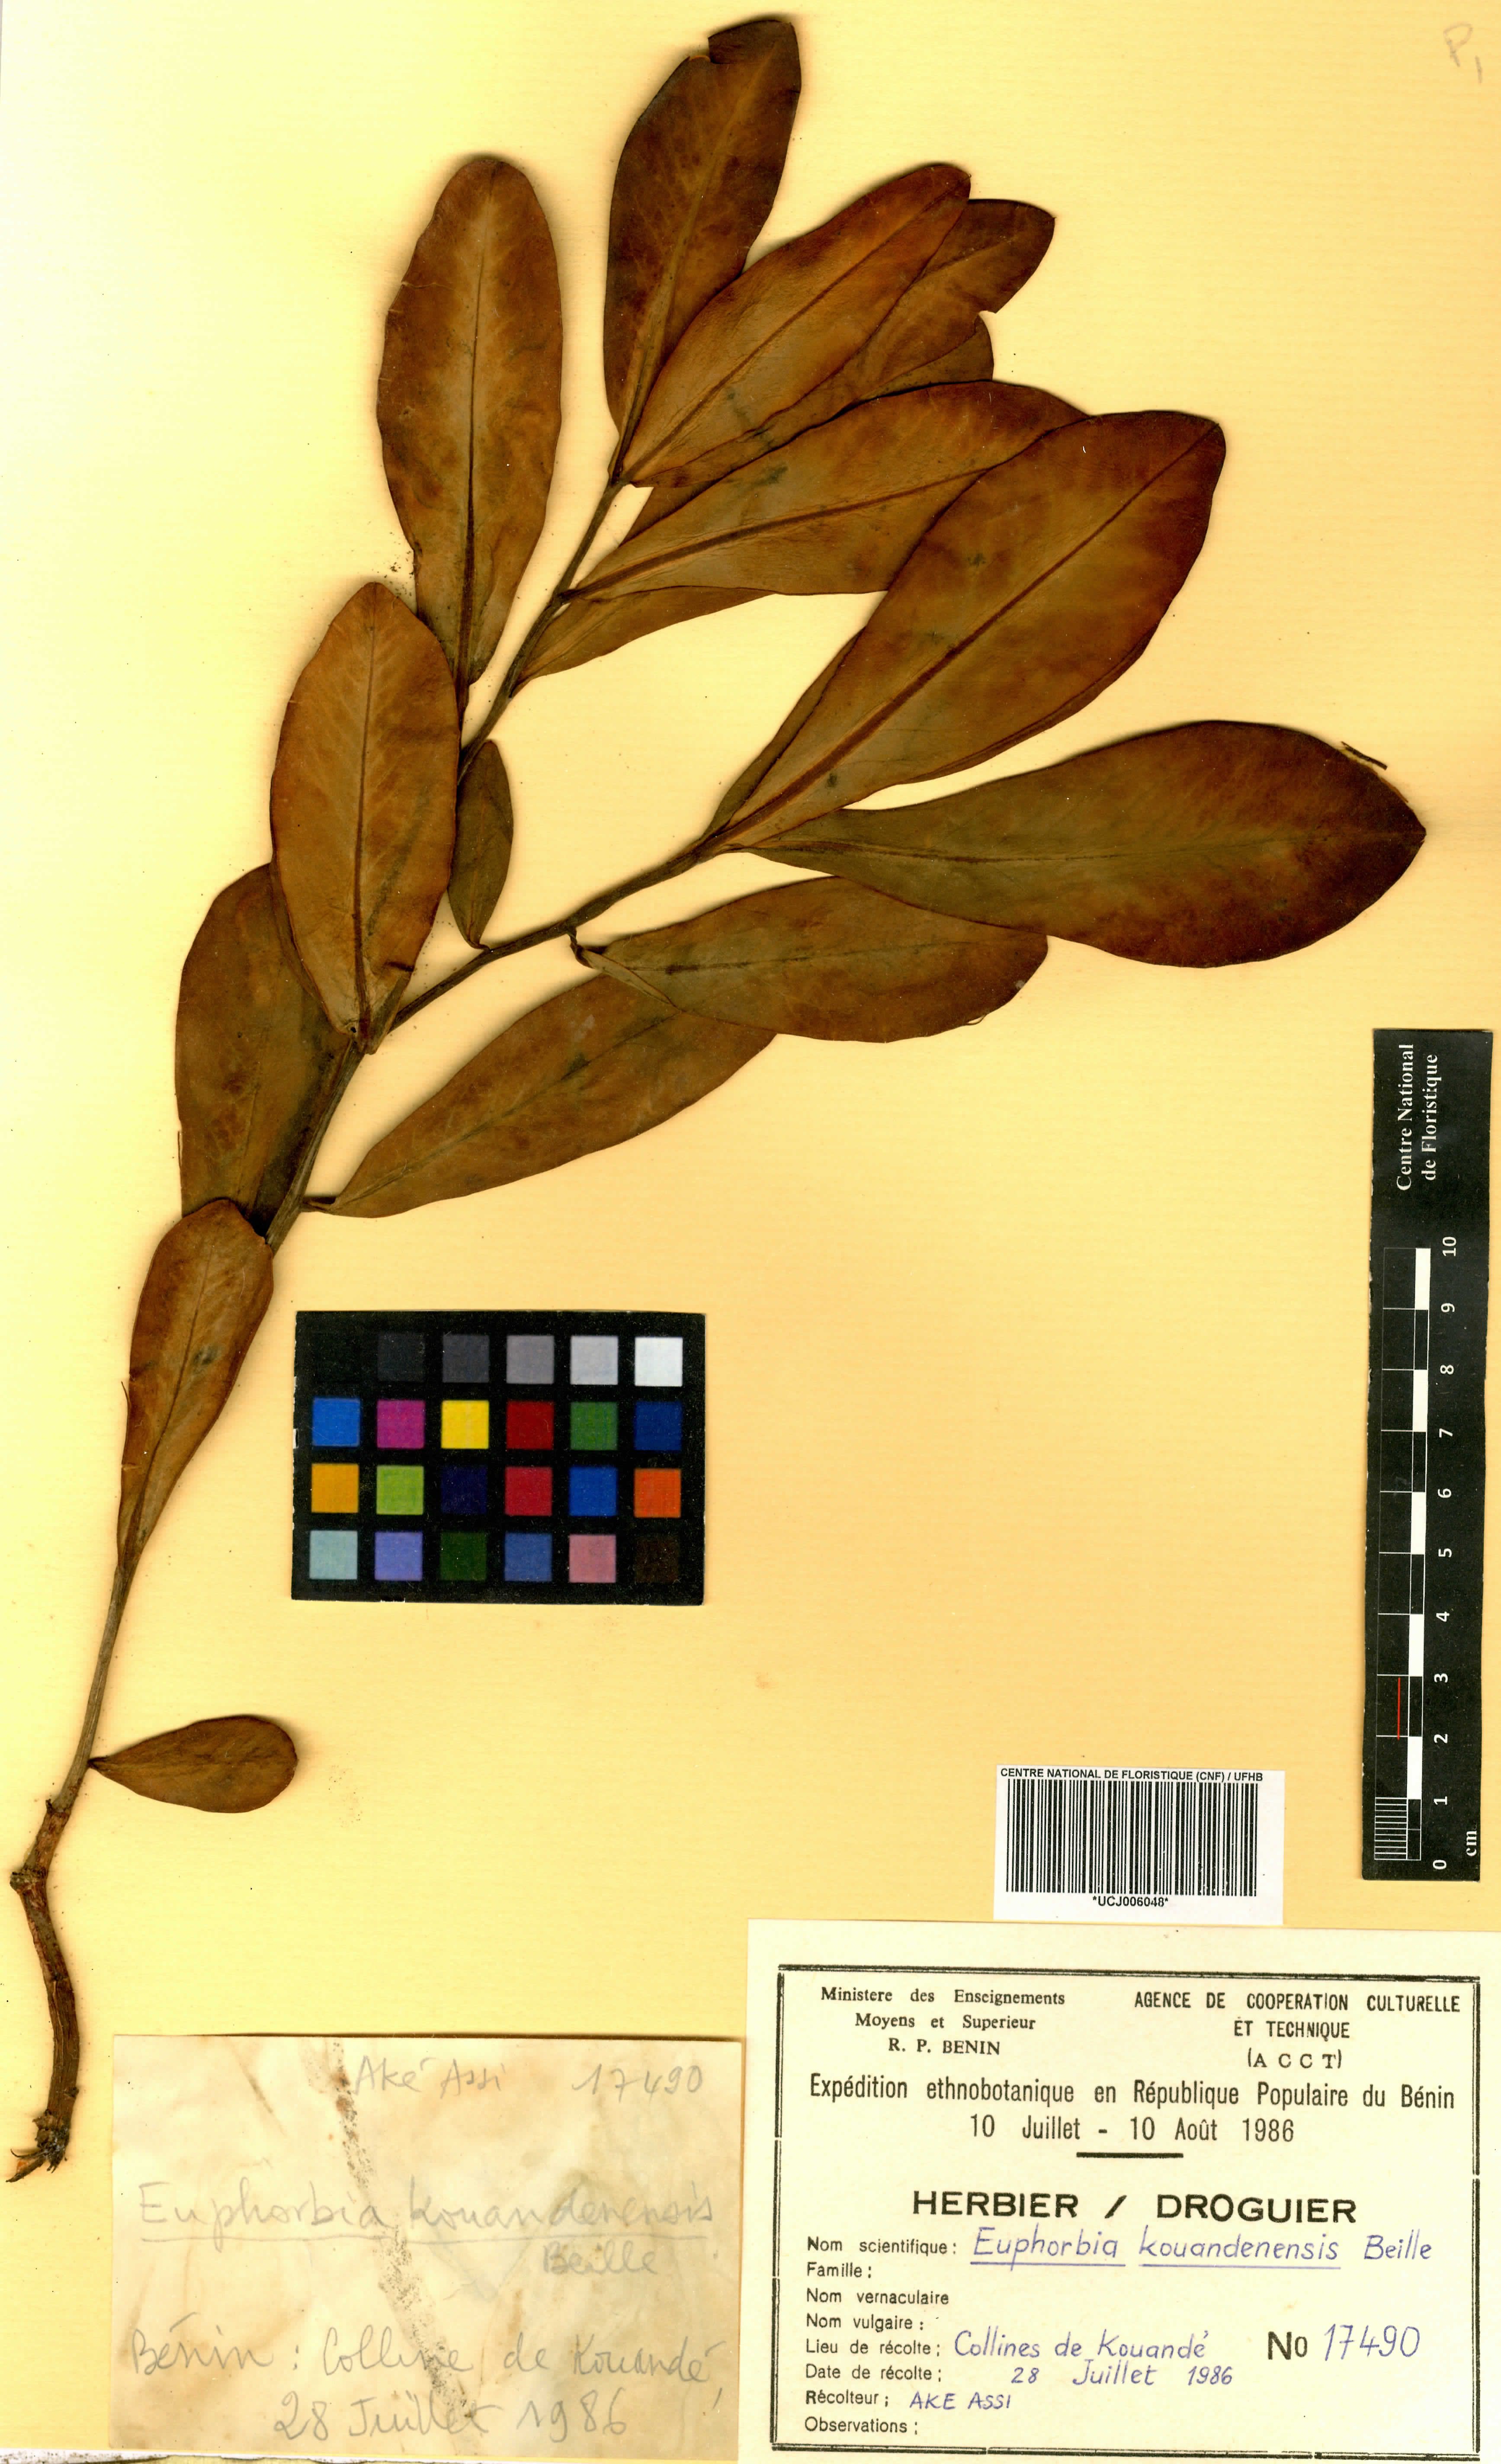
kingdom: Plantae
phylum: Tracheophyta
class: Magnoliopsida
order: Malpighiales
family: Euphorbiaceae
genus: Euphorbia
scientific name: Euphorbia kouandenensis
